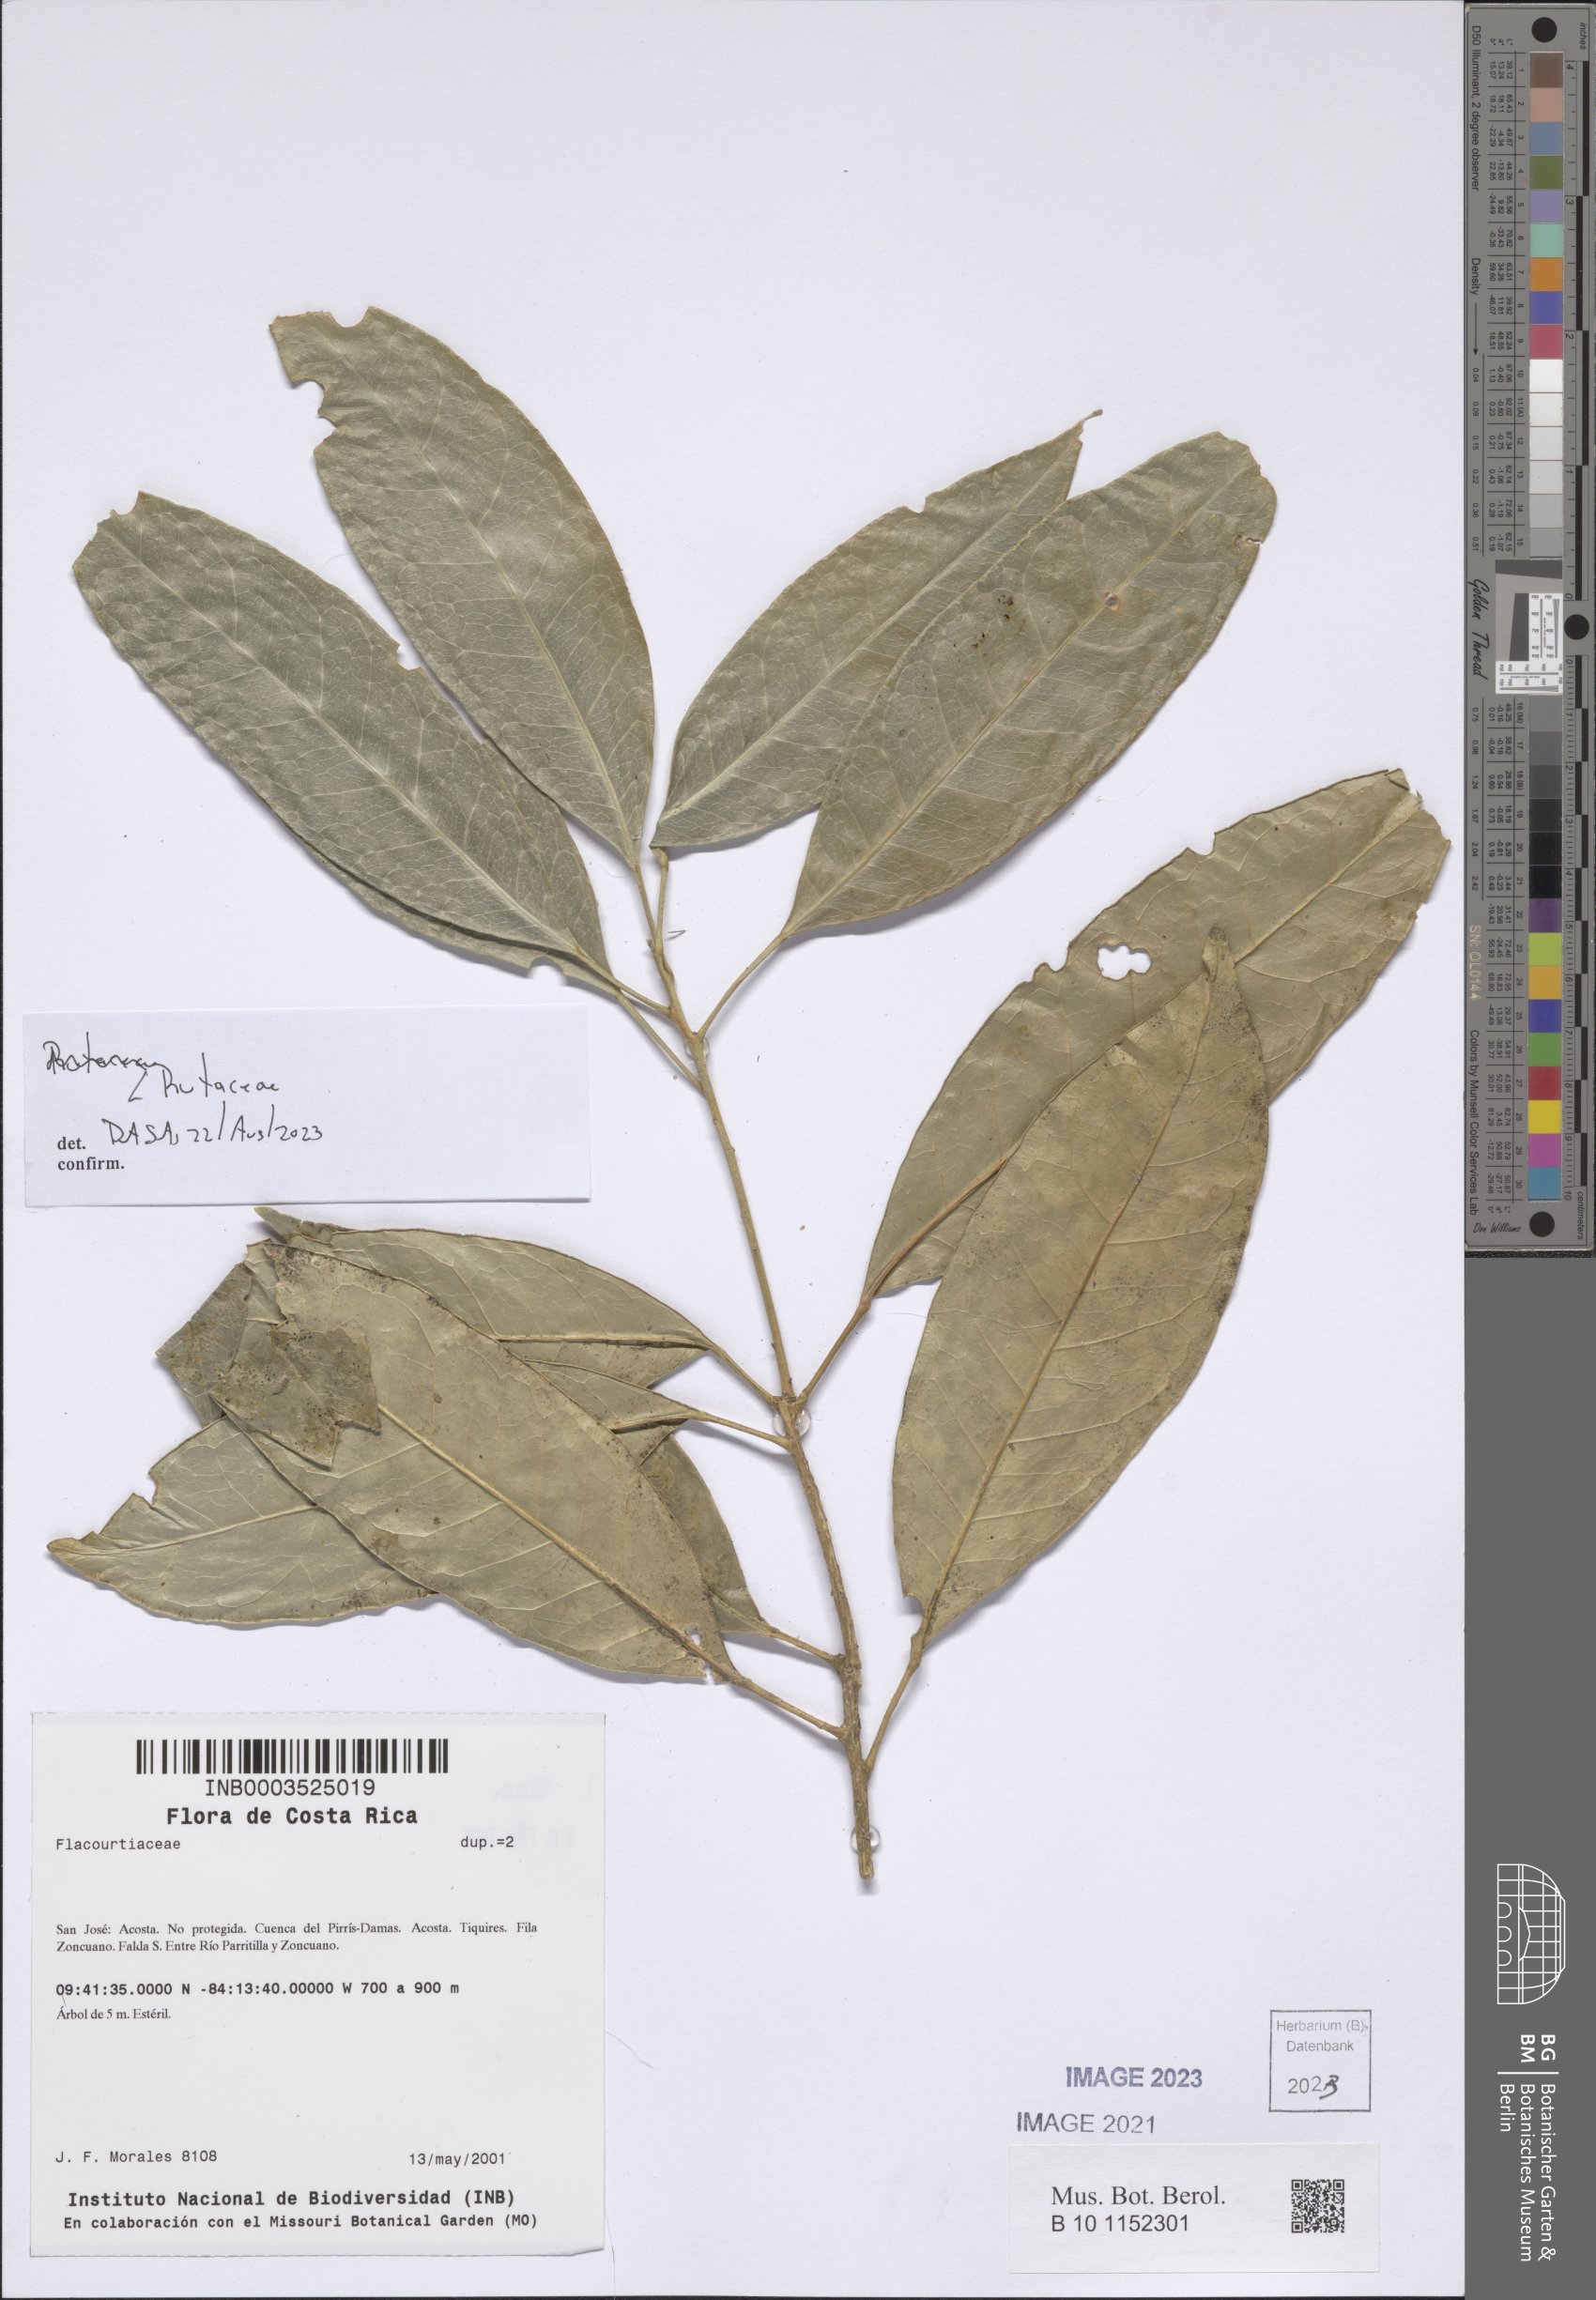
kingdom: Plantae
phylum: Tracheophyta
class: Magnoliopsida
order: Sapindales
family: Rutaceae
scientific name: Rutaceae
